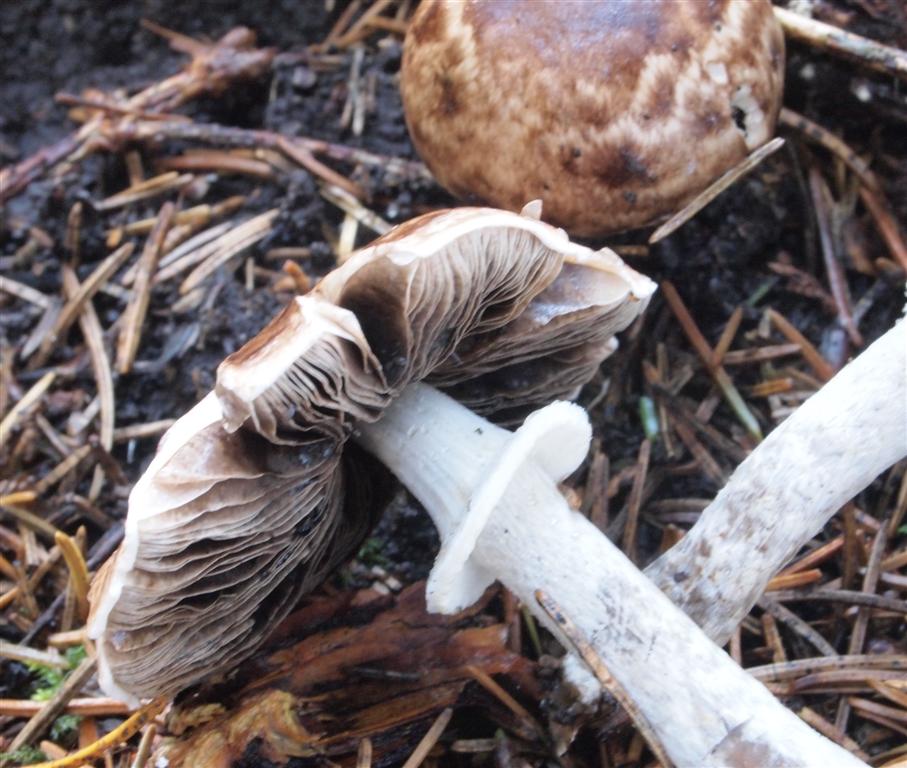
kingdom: Fungi
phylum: Basidiomycota
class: Agaricomycetes
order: Agaricales
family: Agaricaceae
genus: Agaricus
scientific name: Agaricus impudicus
